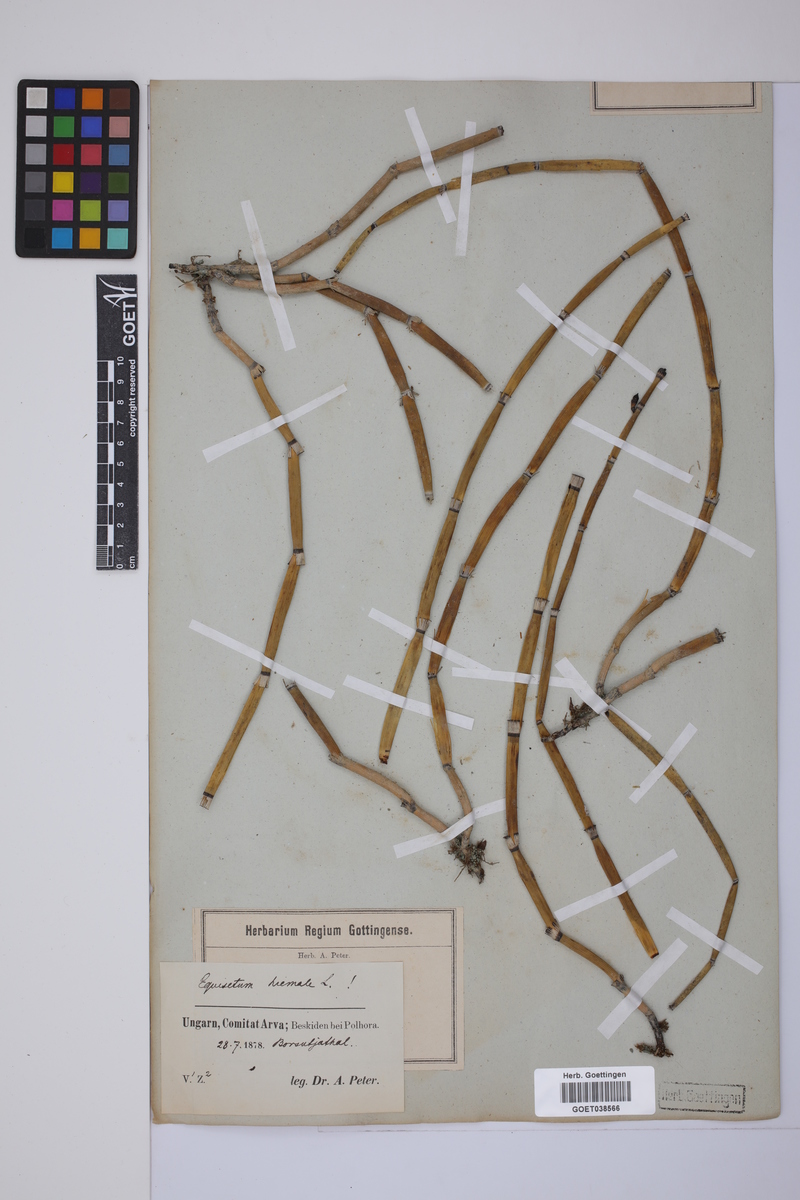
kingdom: Plantae
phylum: Tracheophyta
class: Polypodiopsida
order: Equisetales
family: Equisetaceae
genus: Equisetum
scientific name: Equisetum hyemale
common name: Rough horsetail
